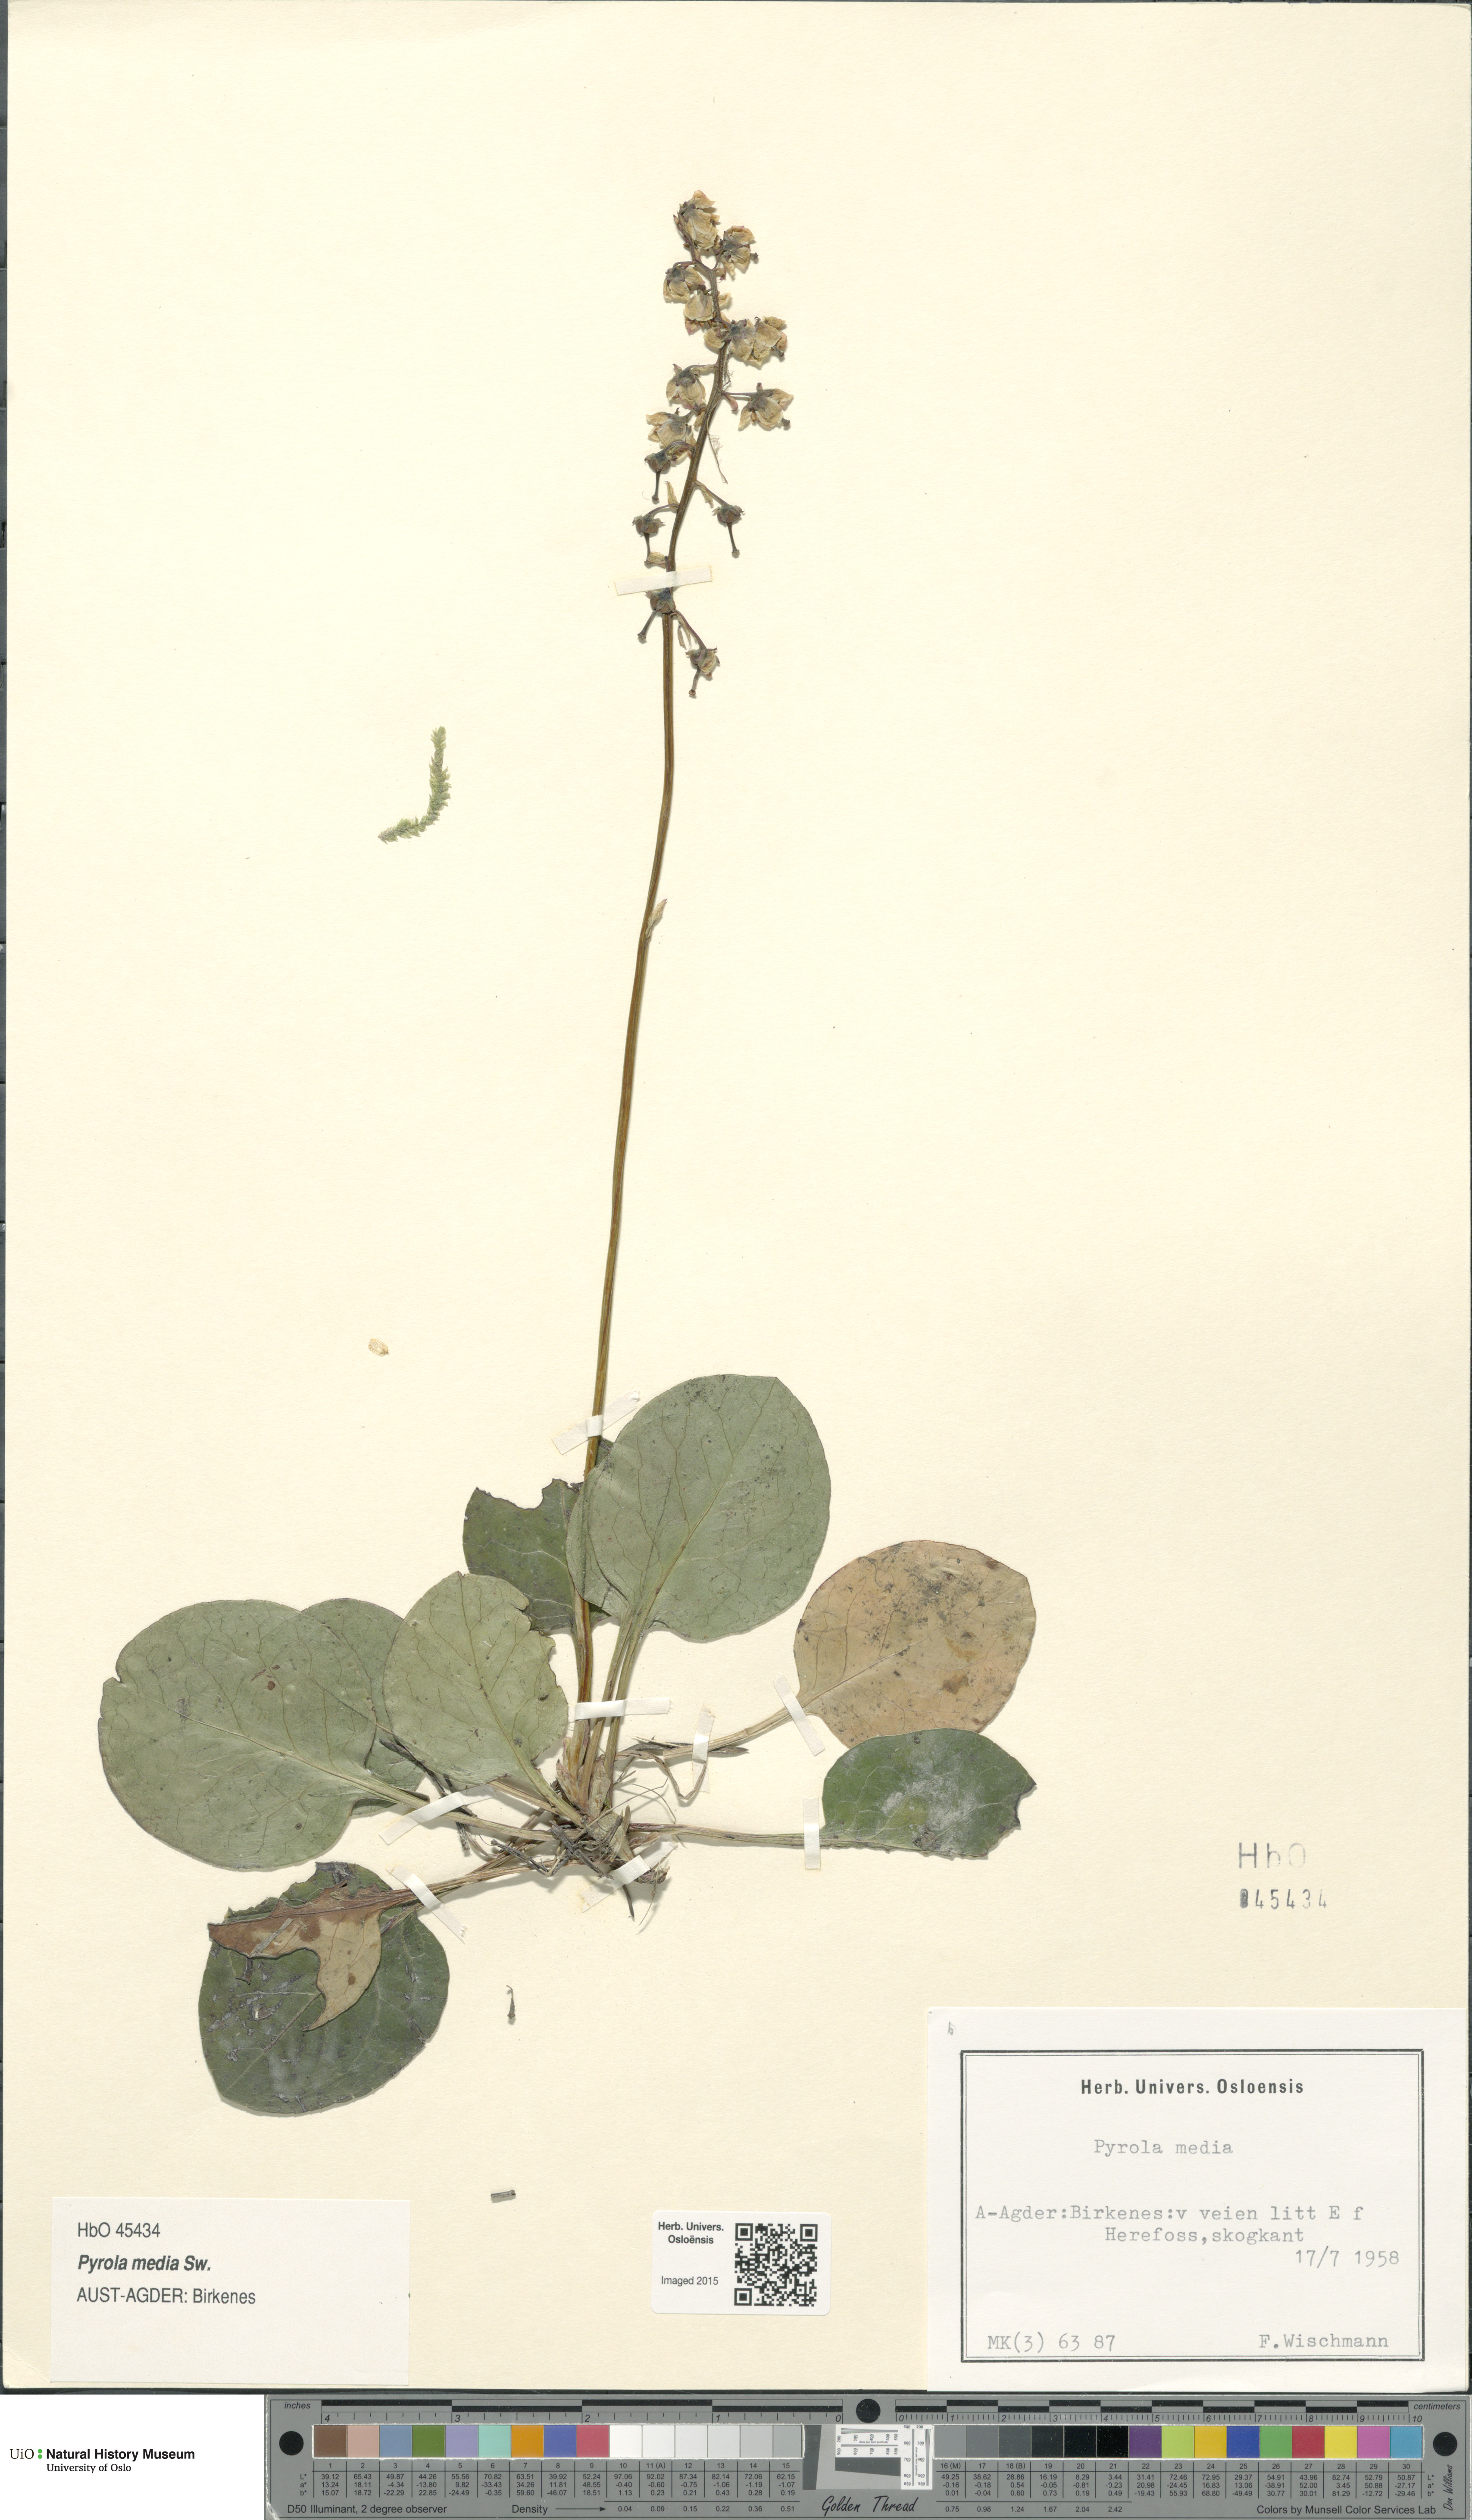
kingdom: Plantae
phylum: Tracheophyta
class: Magnoliopsida
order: Ericales
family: Ericaceae
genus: Pyrola
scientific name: Pyrola media
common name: Intermediate wintergreen
